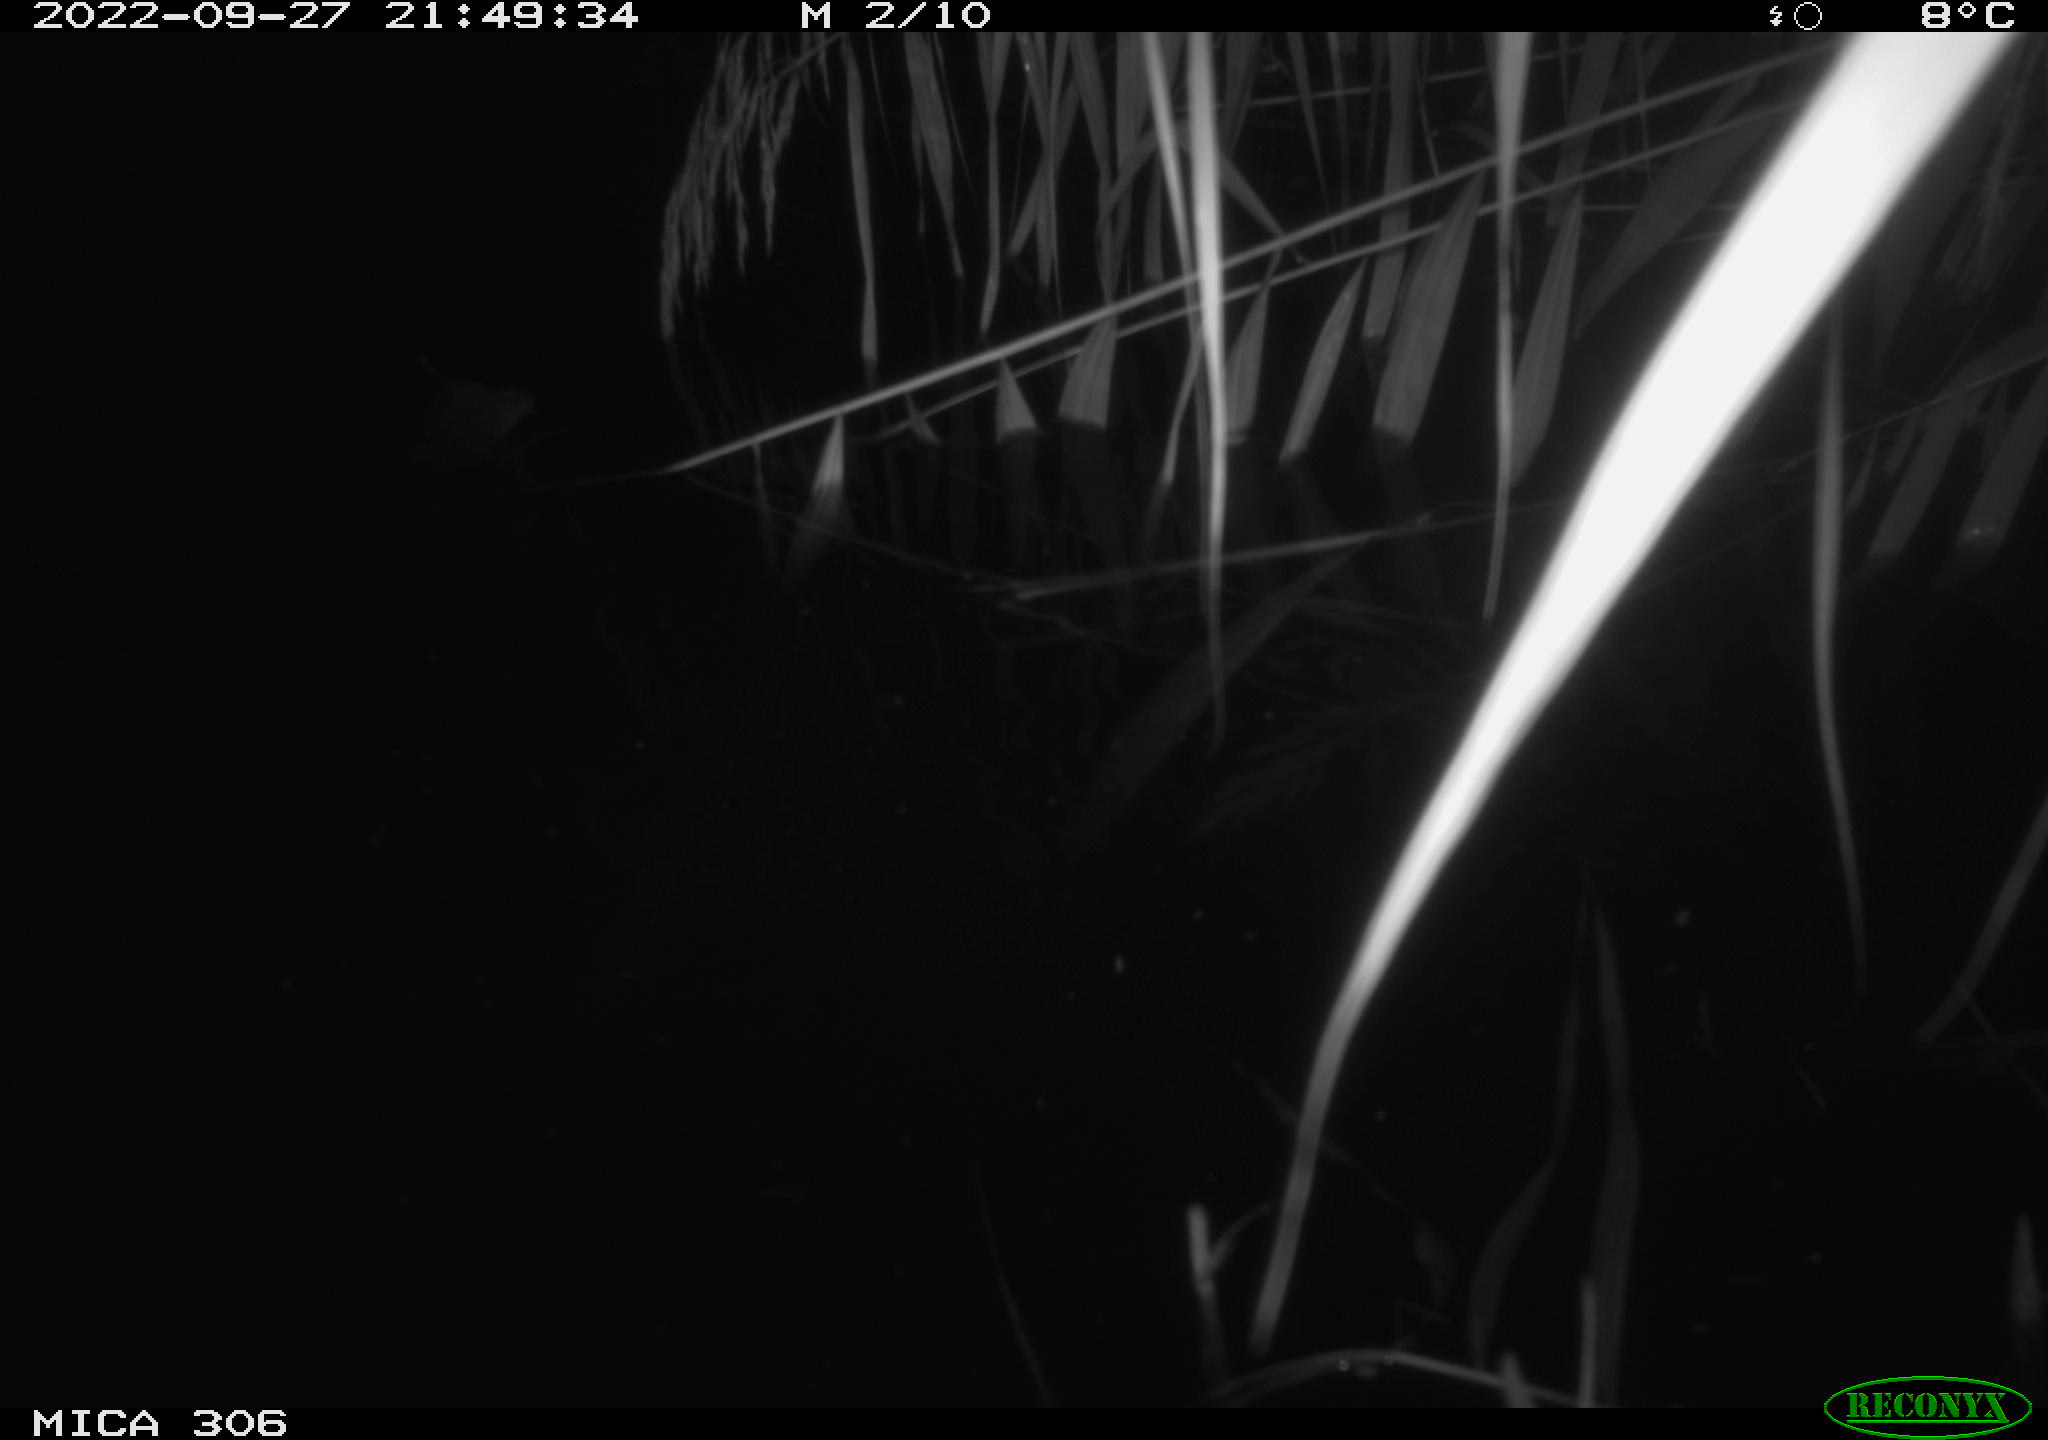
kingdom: Animalia
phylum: Chordata
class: Mammalia
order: Rodentia
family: Muridae
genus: Rattus
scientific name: Rattus norvegicus
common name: Brown rat
